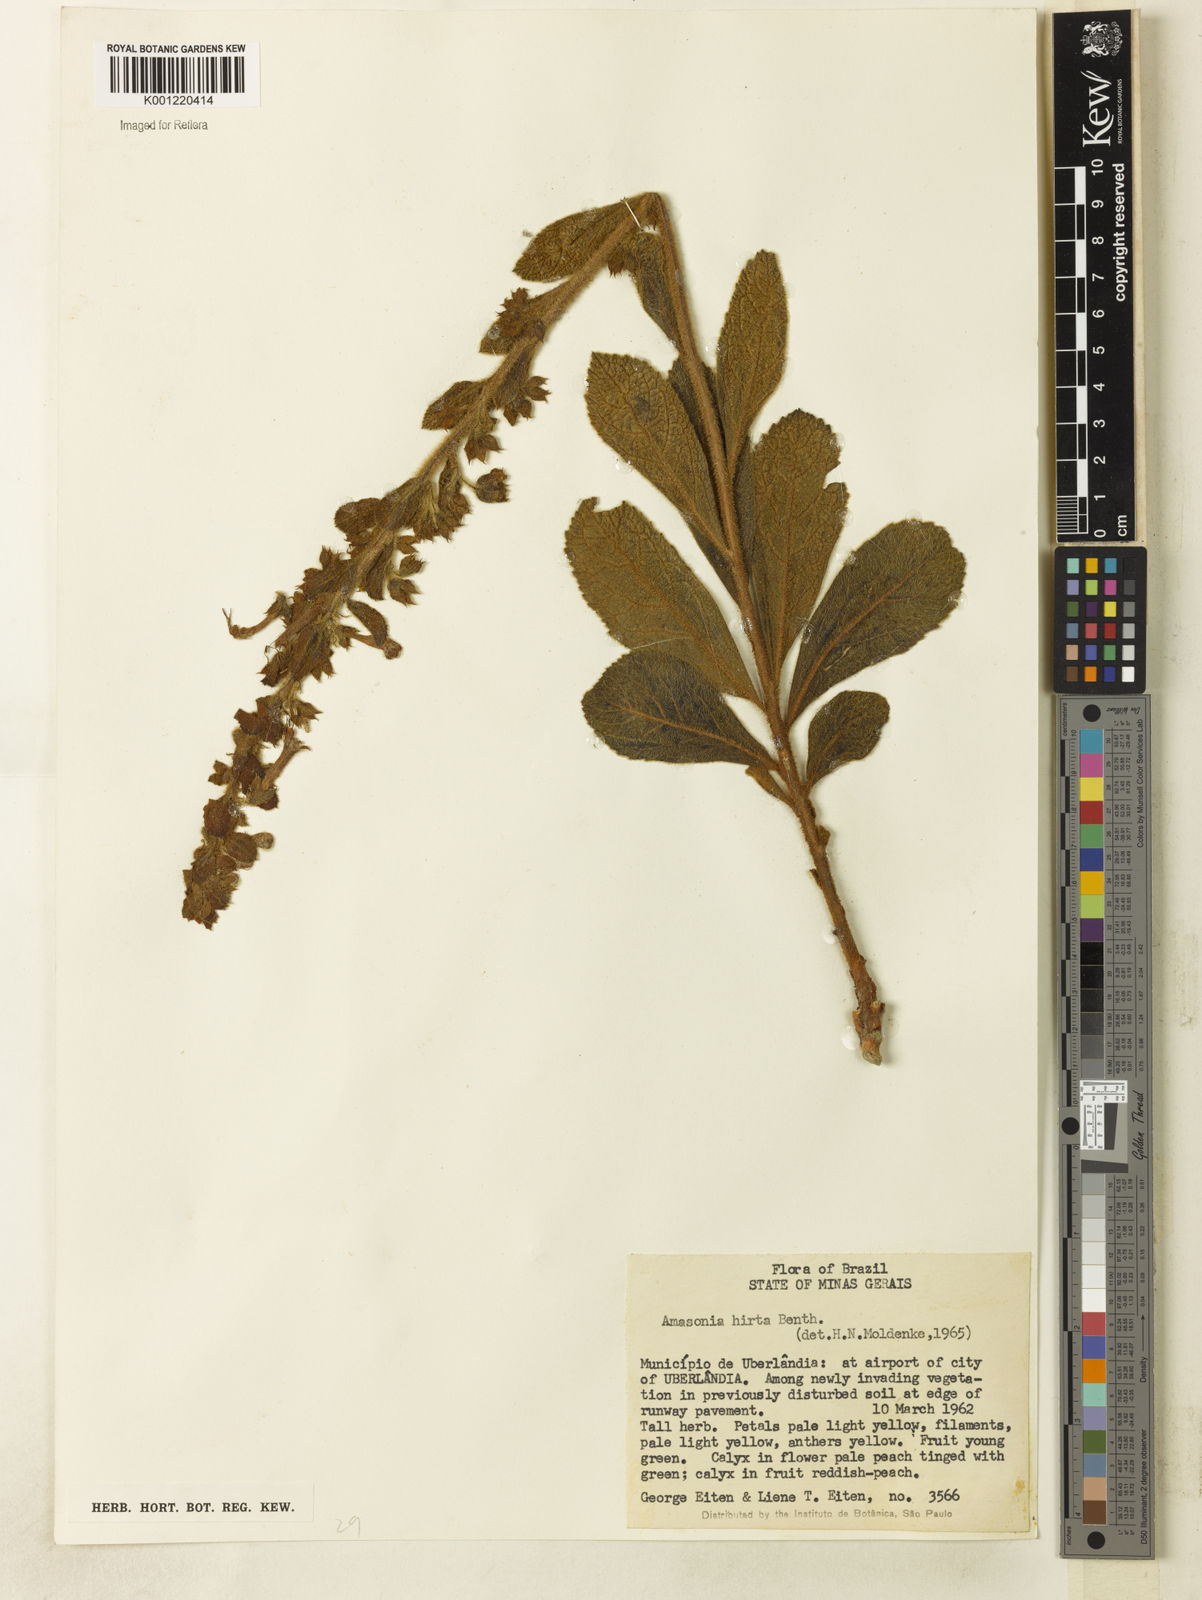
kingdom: Plantae
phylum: Tracheophyta
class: Magnoliopsida
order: Lamiales
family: Lamiaceae
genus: Amasonia
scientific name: Amasonia hirta
